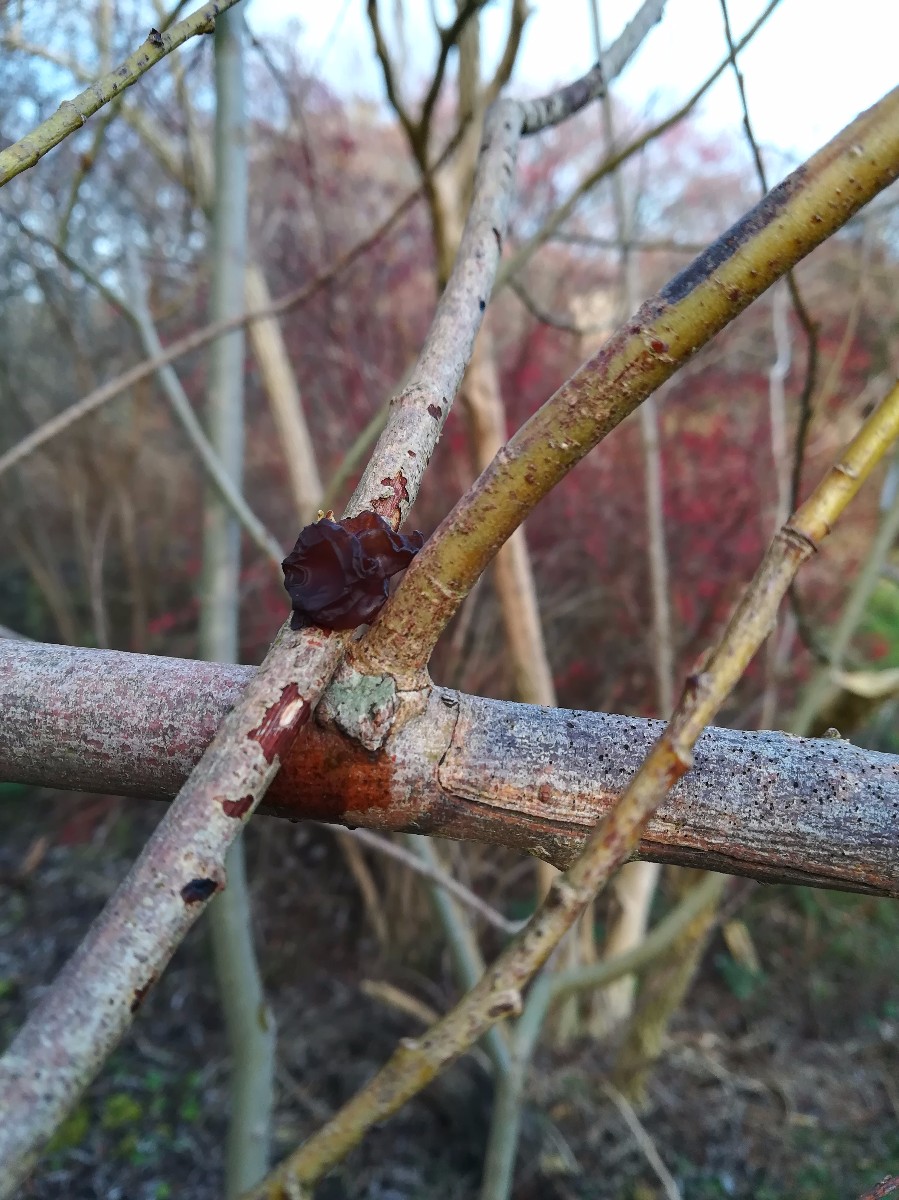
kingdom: Fungi
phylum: Basidiomycota
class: Agaricomycetes
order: Auriculariales
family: Auriculariaceae
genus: Exidia
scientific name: Exidia recisa
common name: pile-bævretop
